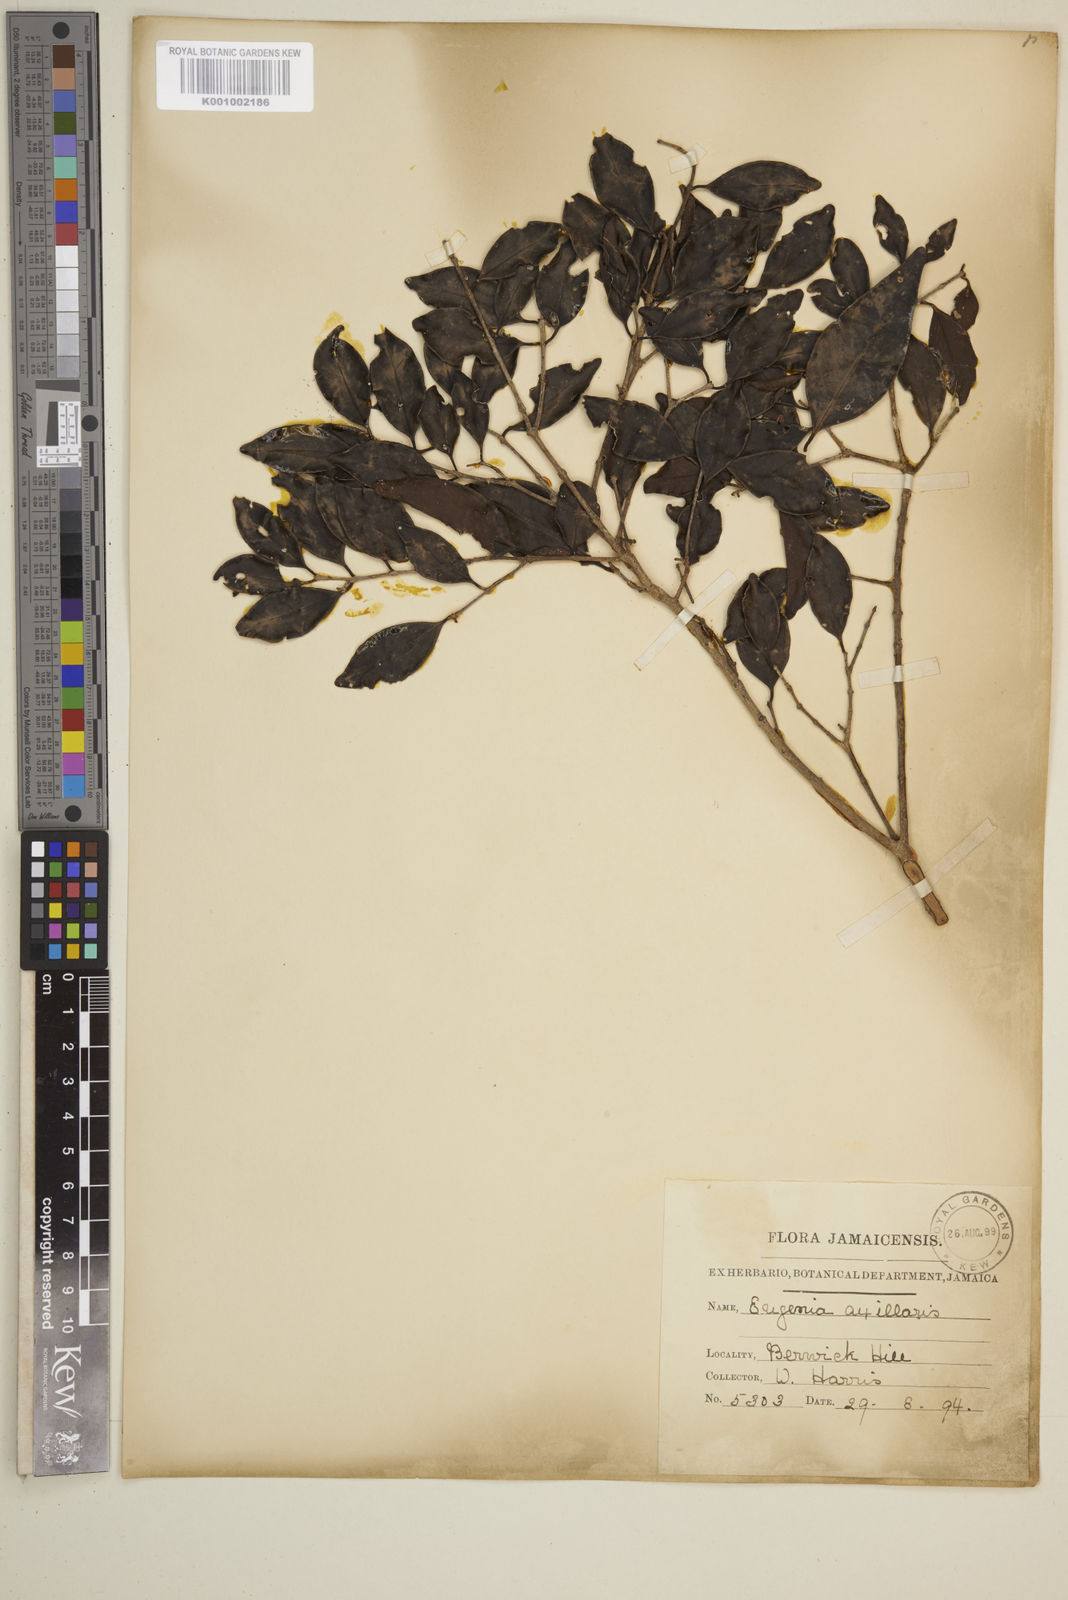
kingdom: Plantae
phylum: Tracheophyta
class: Magnoliopsida
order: Myrtales
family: Myrtaceae
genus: Eugenia
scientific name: Eugenia axillaris
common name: Choaky berry
